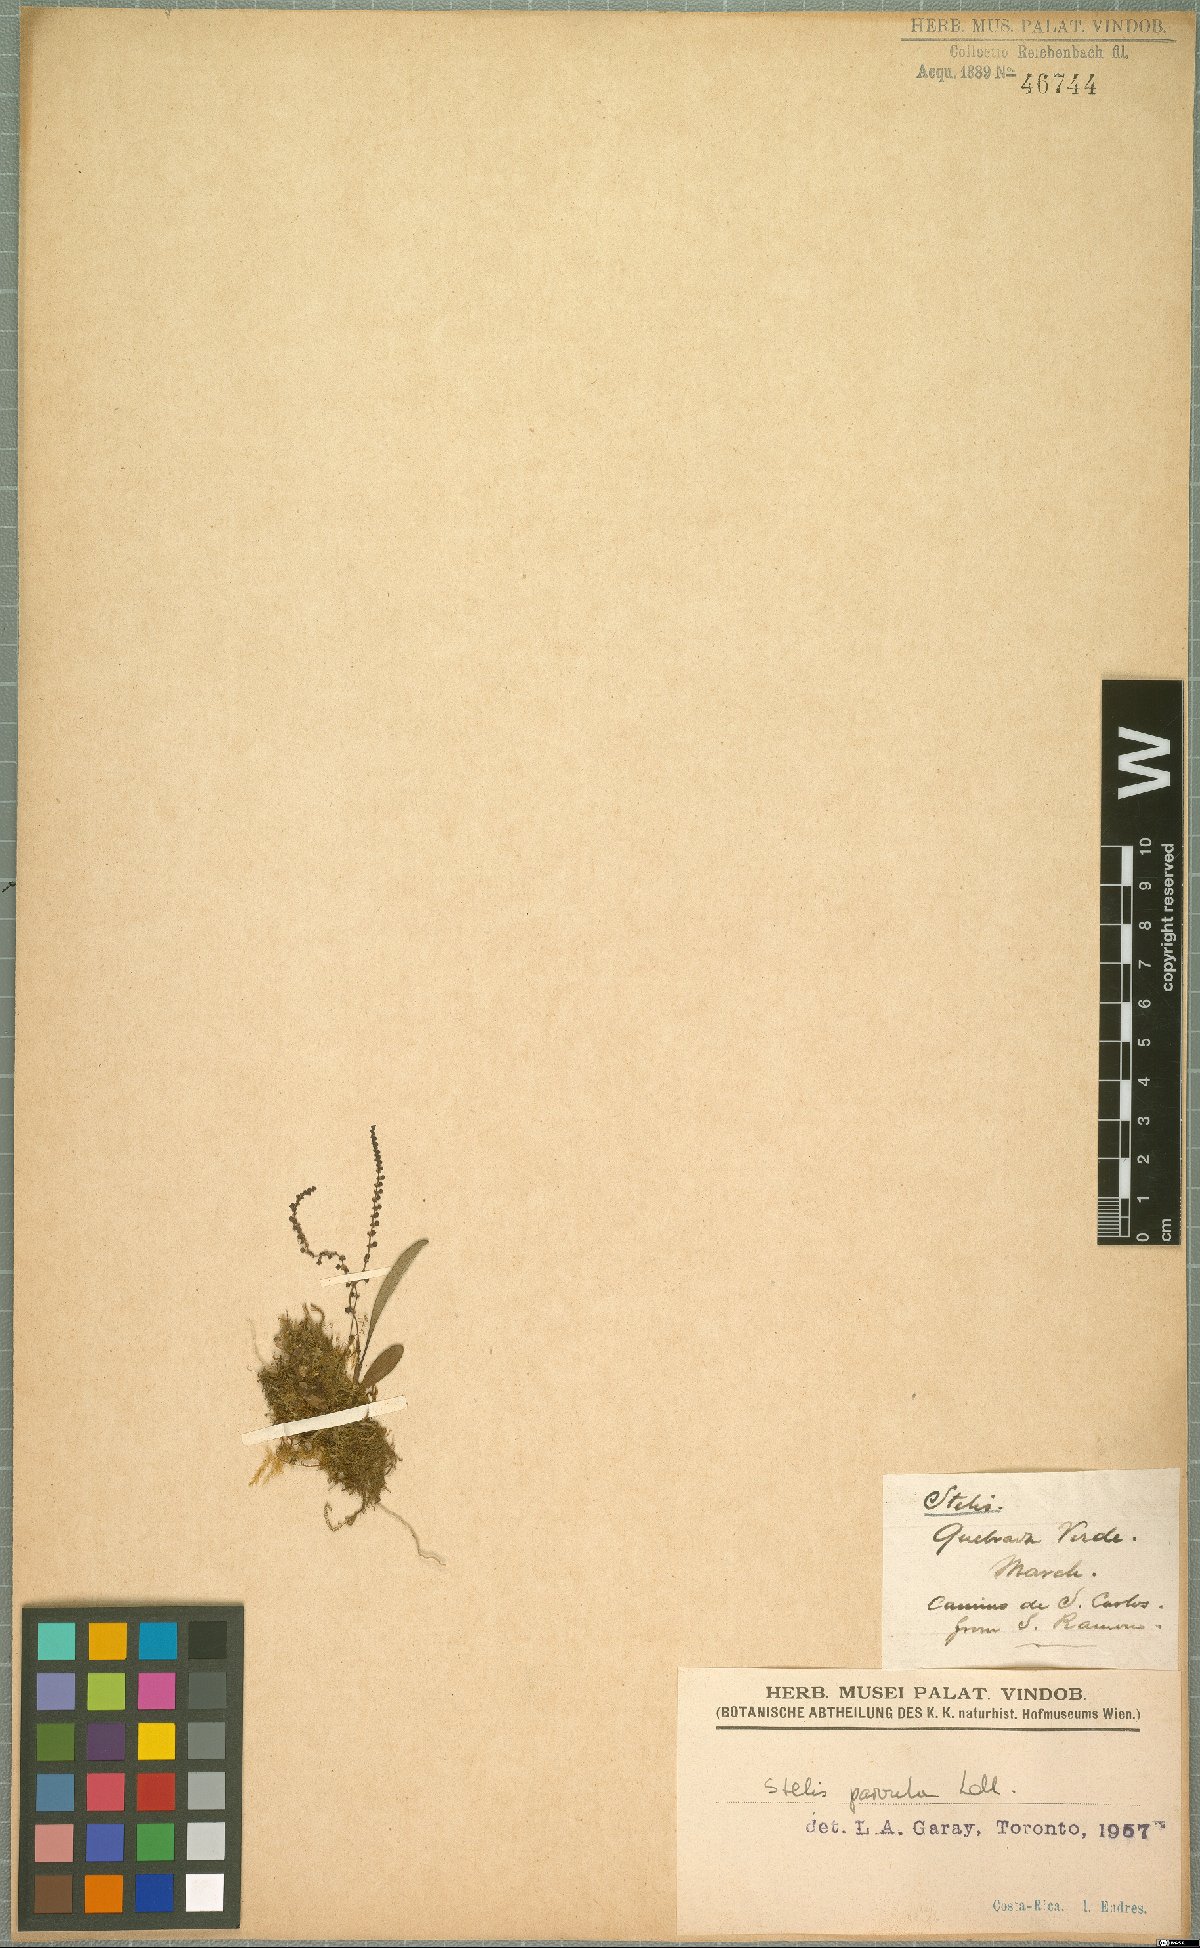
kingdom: Plantae
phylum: Tracheophyta
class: Liliopsida
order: Asparagales
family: Orchidaceae
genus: Stelis
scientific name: Stelis parvula
